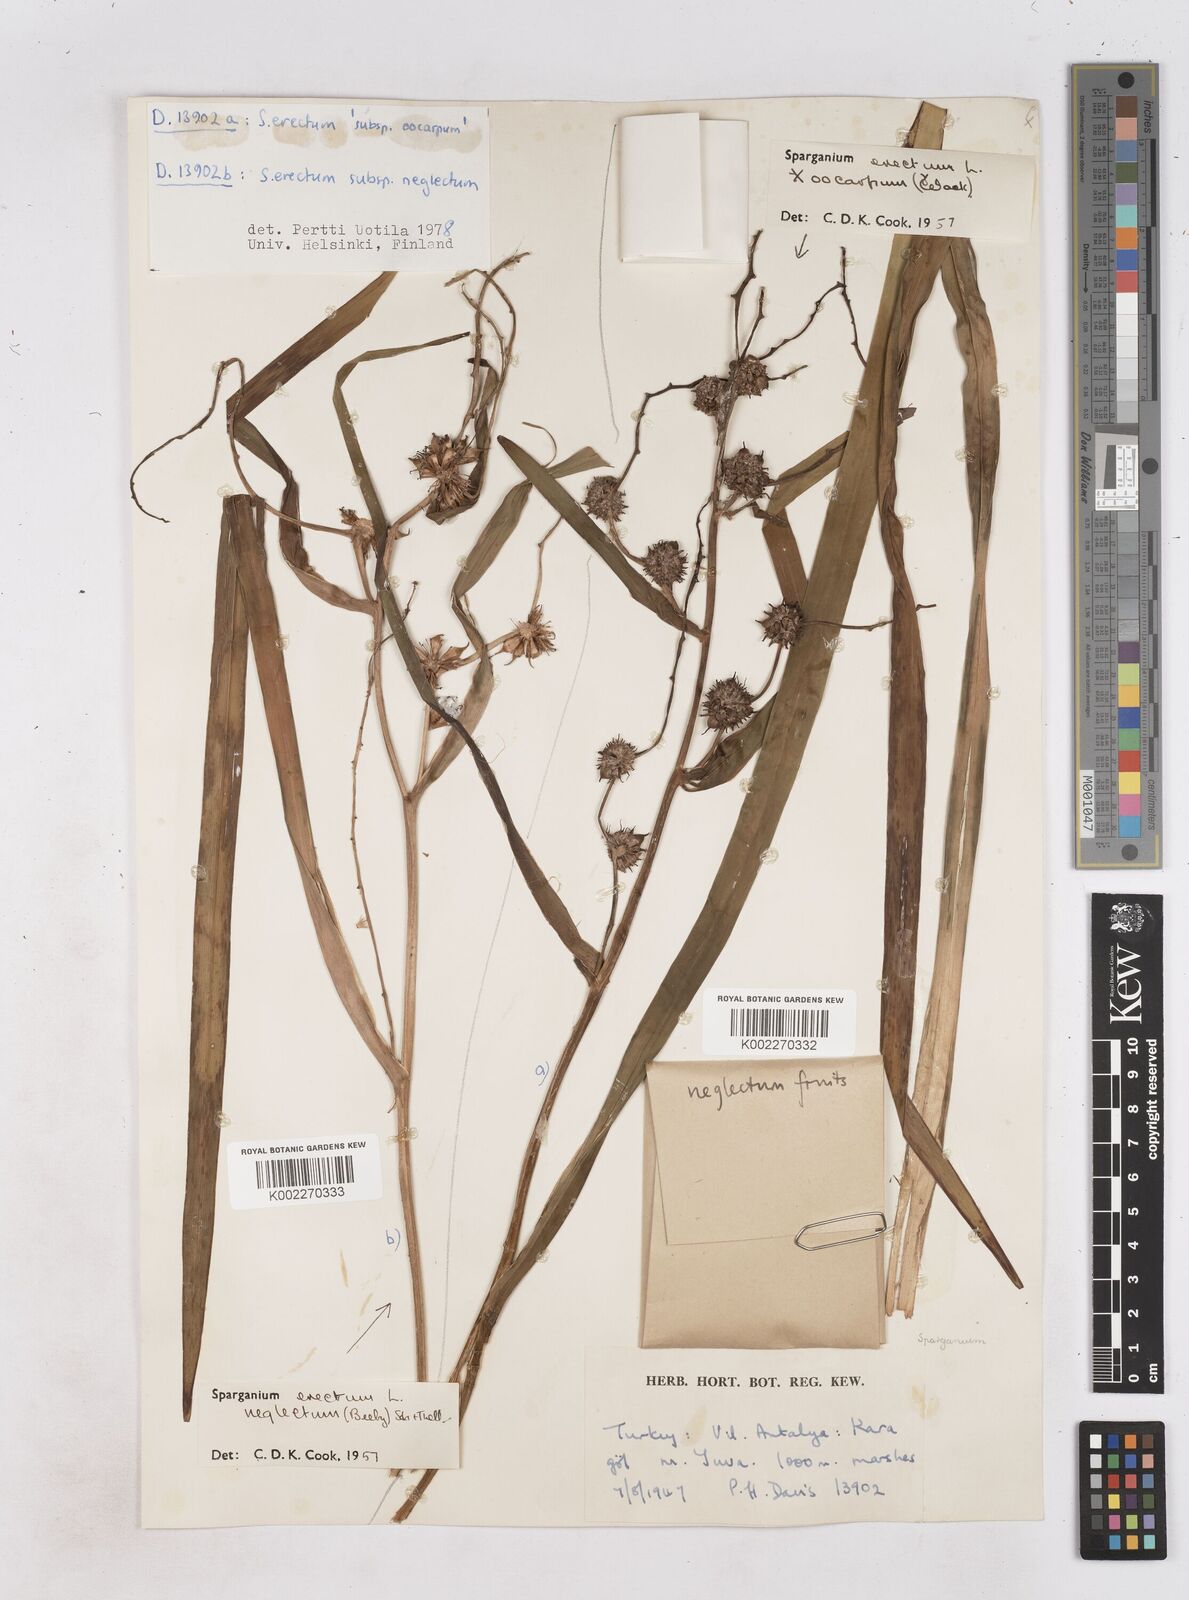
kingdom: Plantae
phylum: Tracheophyta
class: Liliopsida
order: Poales
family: Typhaceae
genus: Sparganium
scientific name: Sparganium erectum
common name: Branched bur-reed
